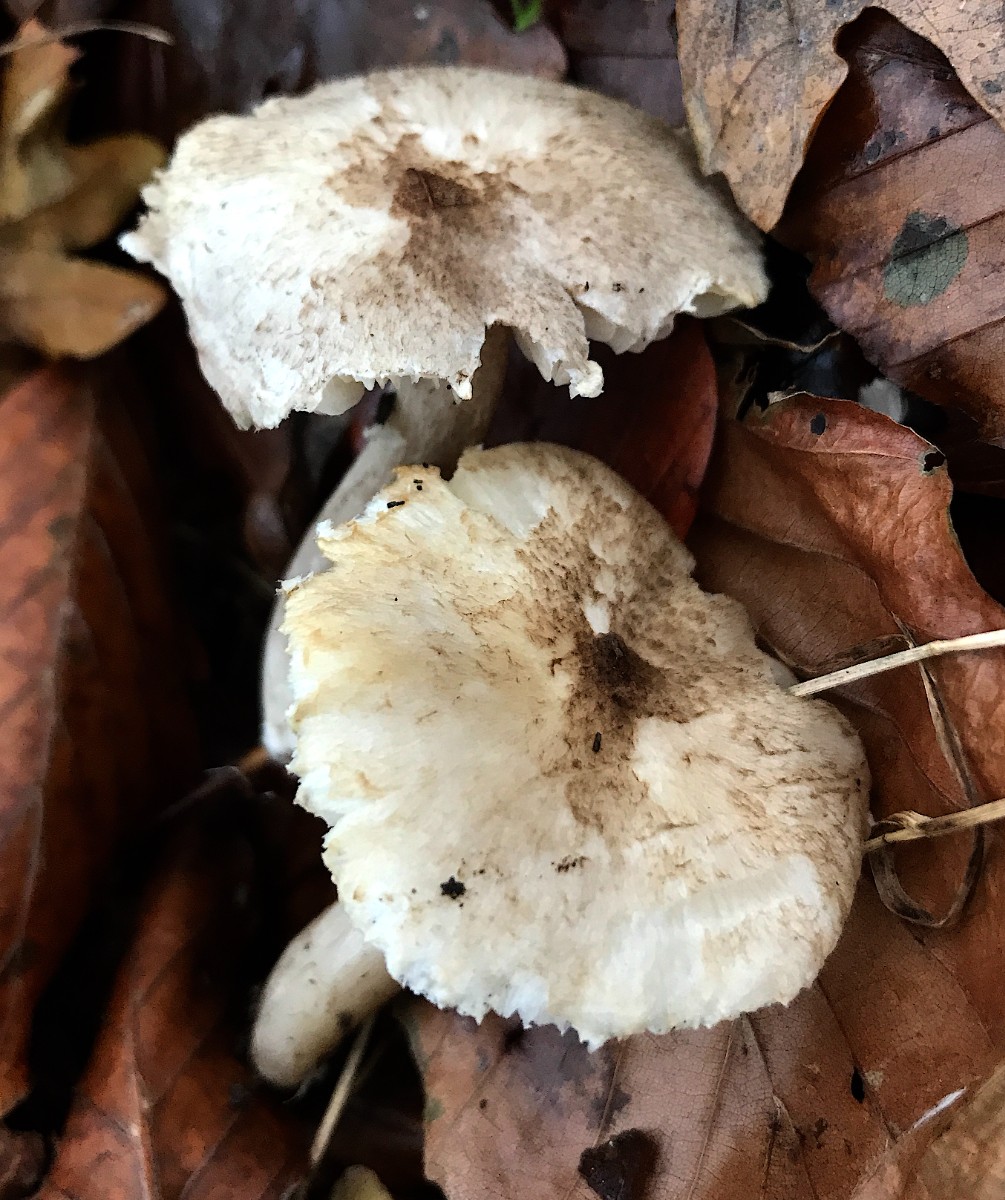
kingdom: Fungi
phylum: Basidiomycota
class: Agaricomycetes
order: Agaricales
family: Tricholomataceae
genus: Tricholoma
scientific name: Tricholoma scalpturatum
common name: gulplettet ridderhat
